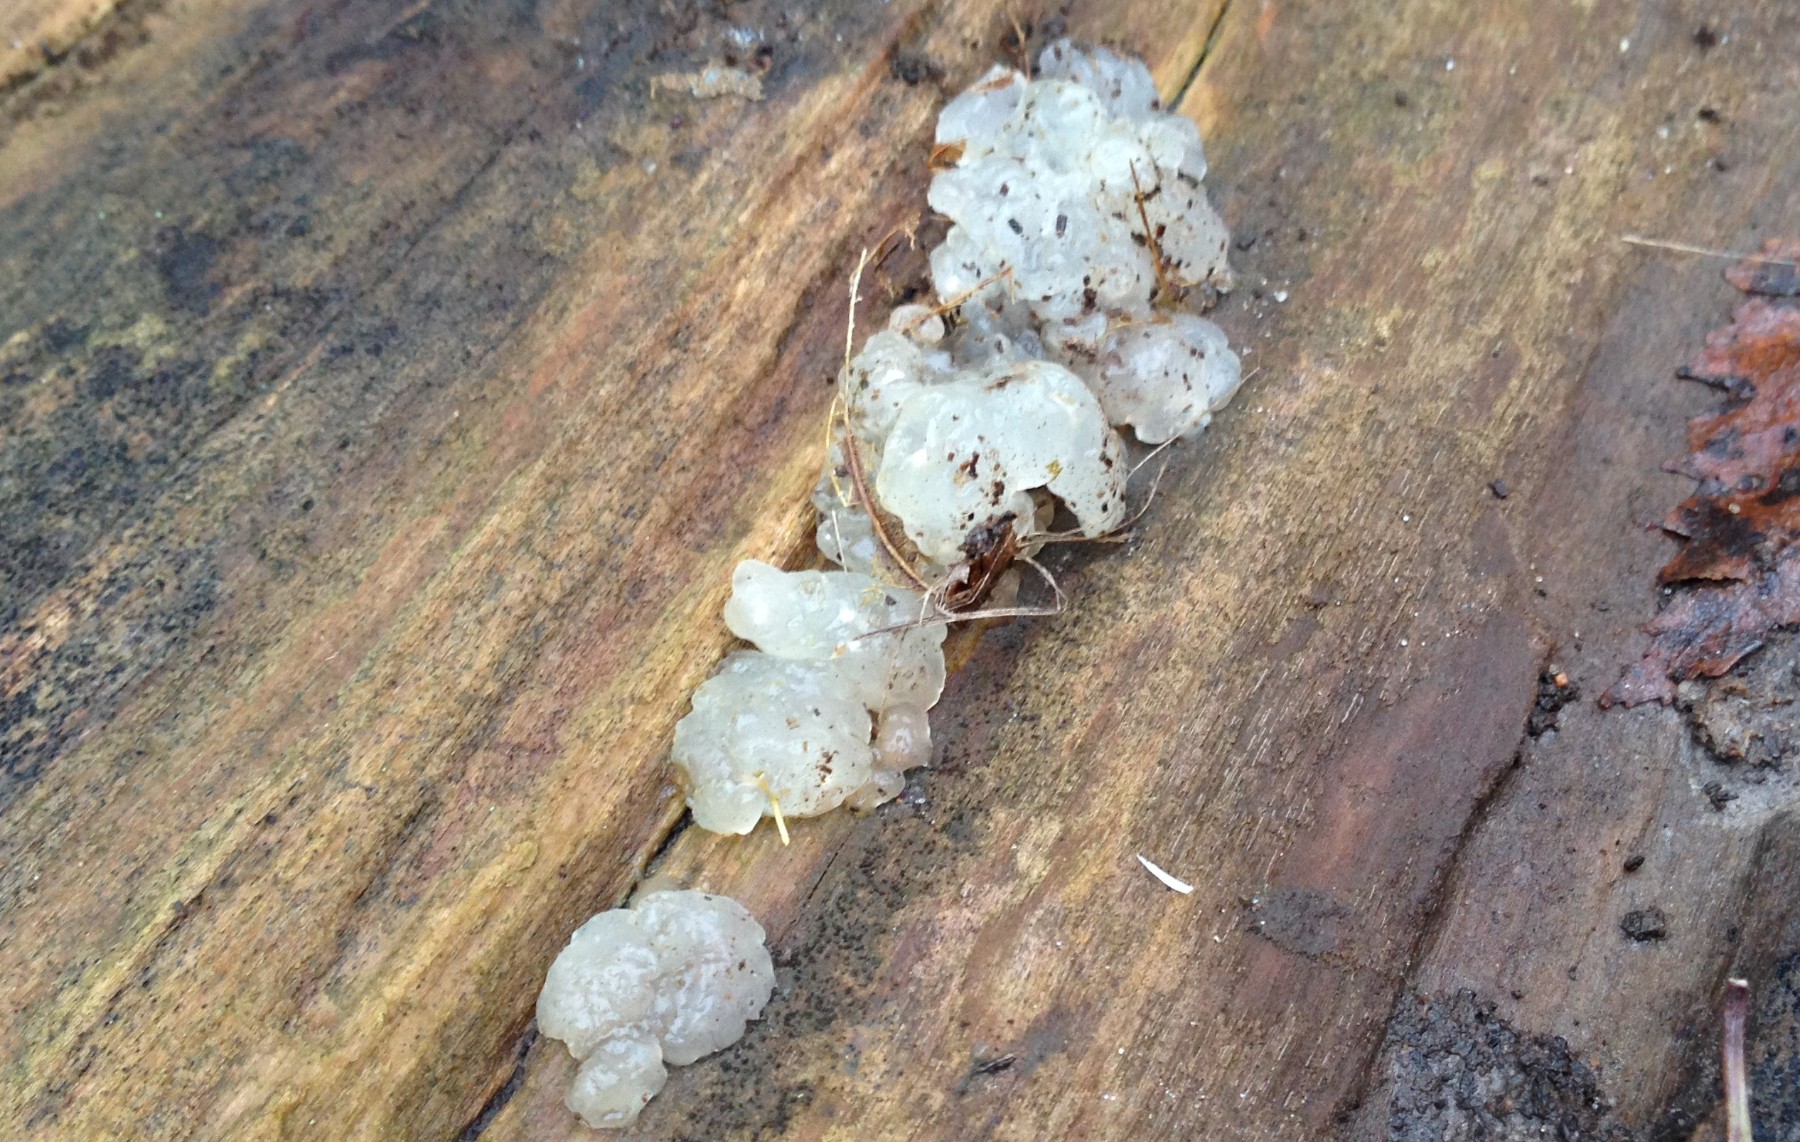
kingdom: Fungi
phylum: Basidiomycota
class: Agaricomycetes
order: Auriculariales
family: Hyaloriaceae
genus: Myxarium
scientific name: Myxarium nucleatum
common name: klar bævretop
